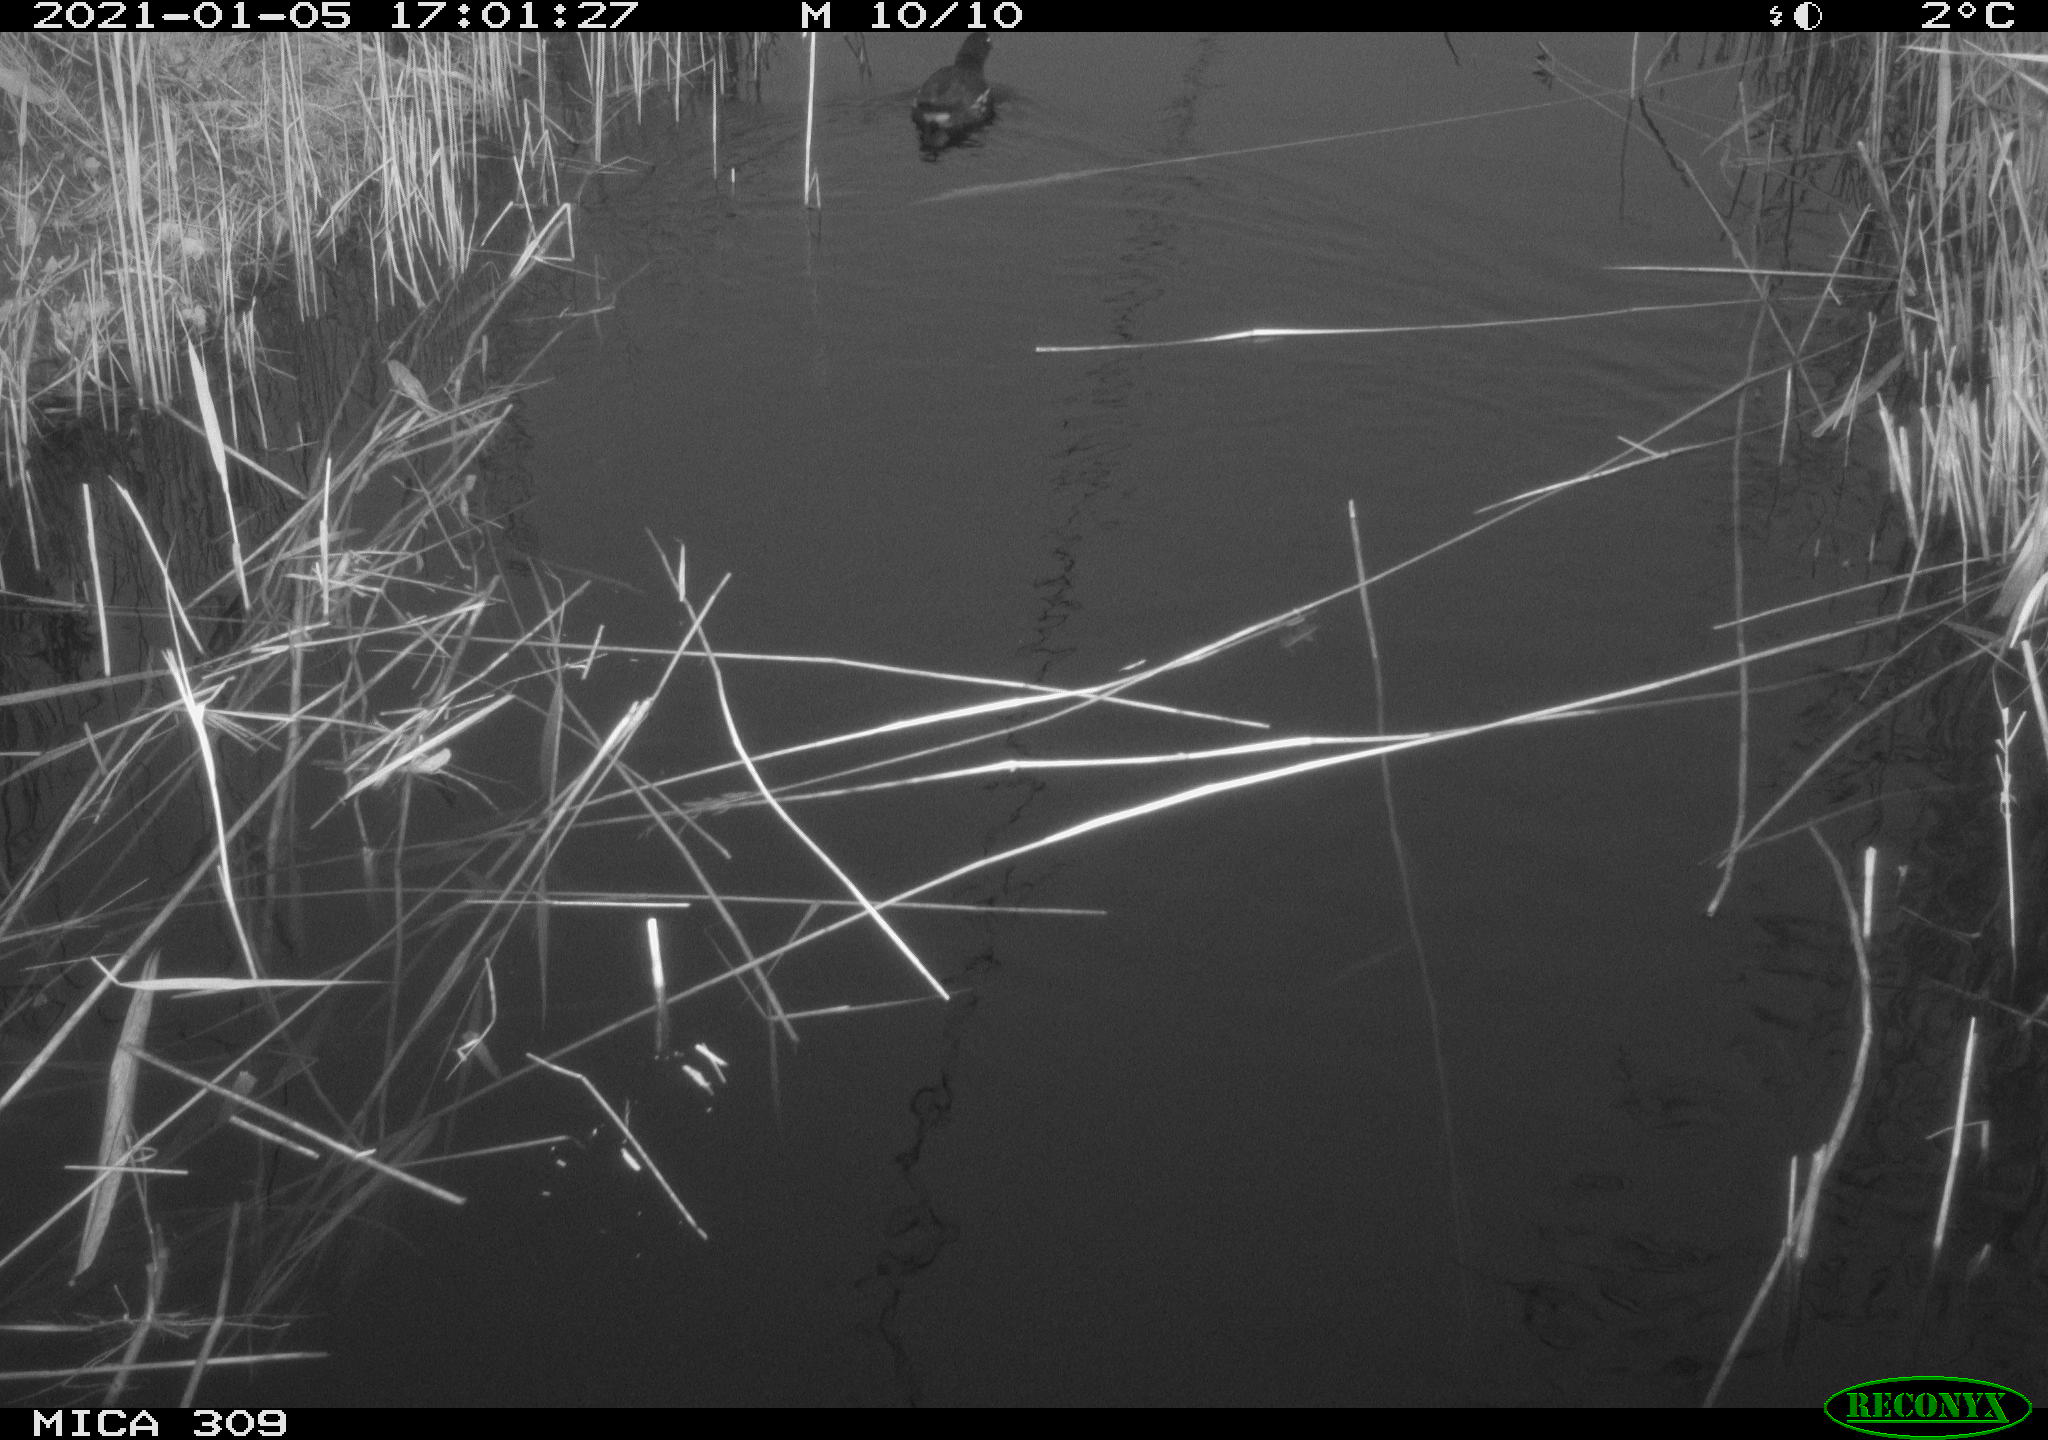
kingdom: Animalia
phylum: Chordata
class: Aves
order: Gruiformes
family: Rallidae
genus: Gallinula
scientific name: Gallinula chloropus
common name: Common moorhen
